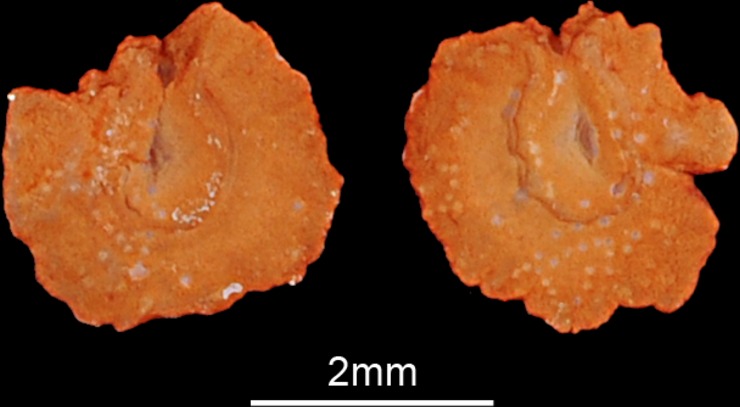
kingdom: Animalia
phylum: Chordata
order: Cypriniformes
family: Cyprinidae
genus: Ballerus
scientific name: Ballerus sapa
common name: White-eye bream
